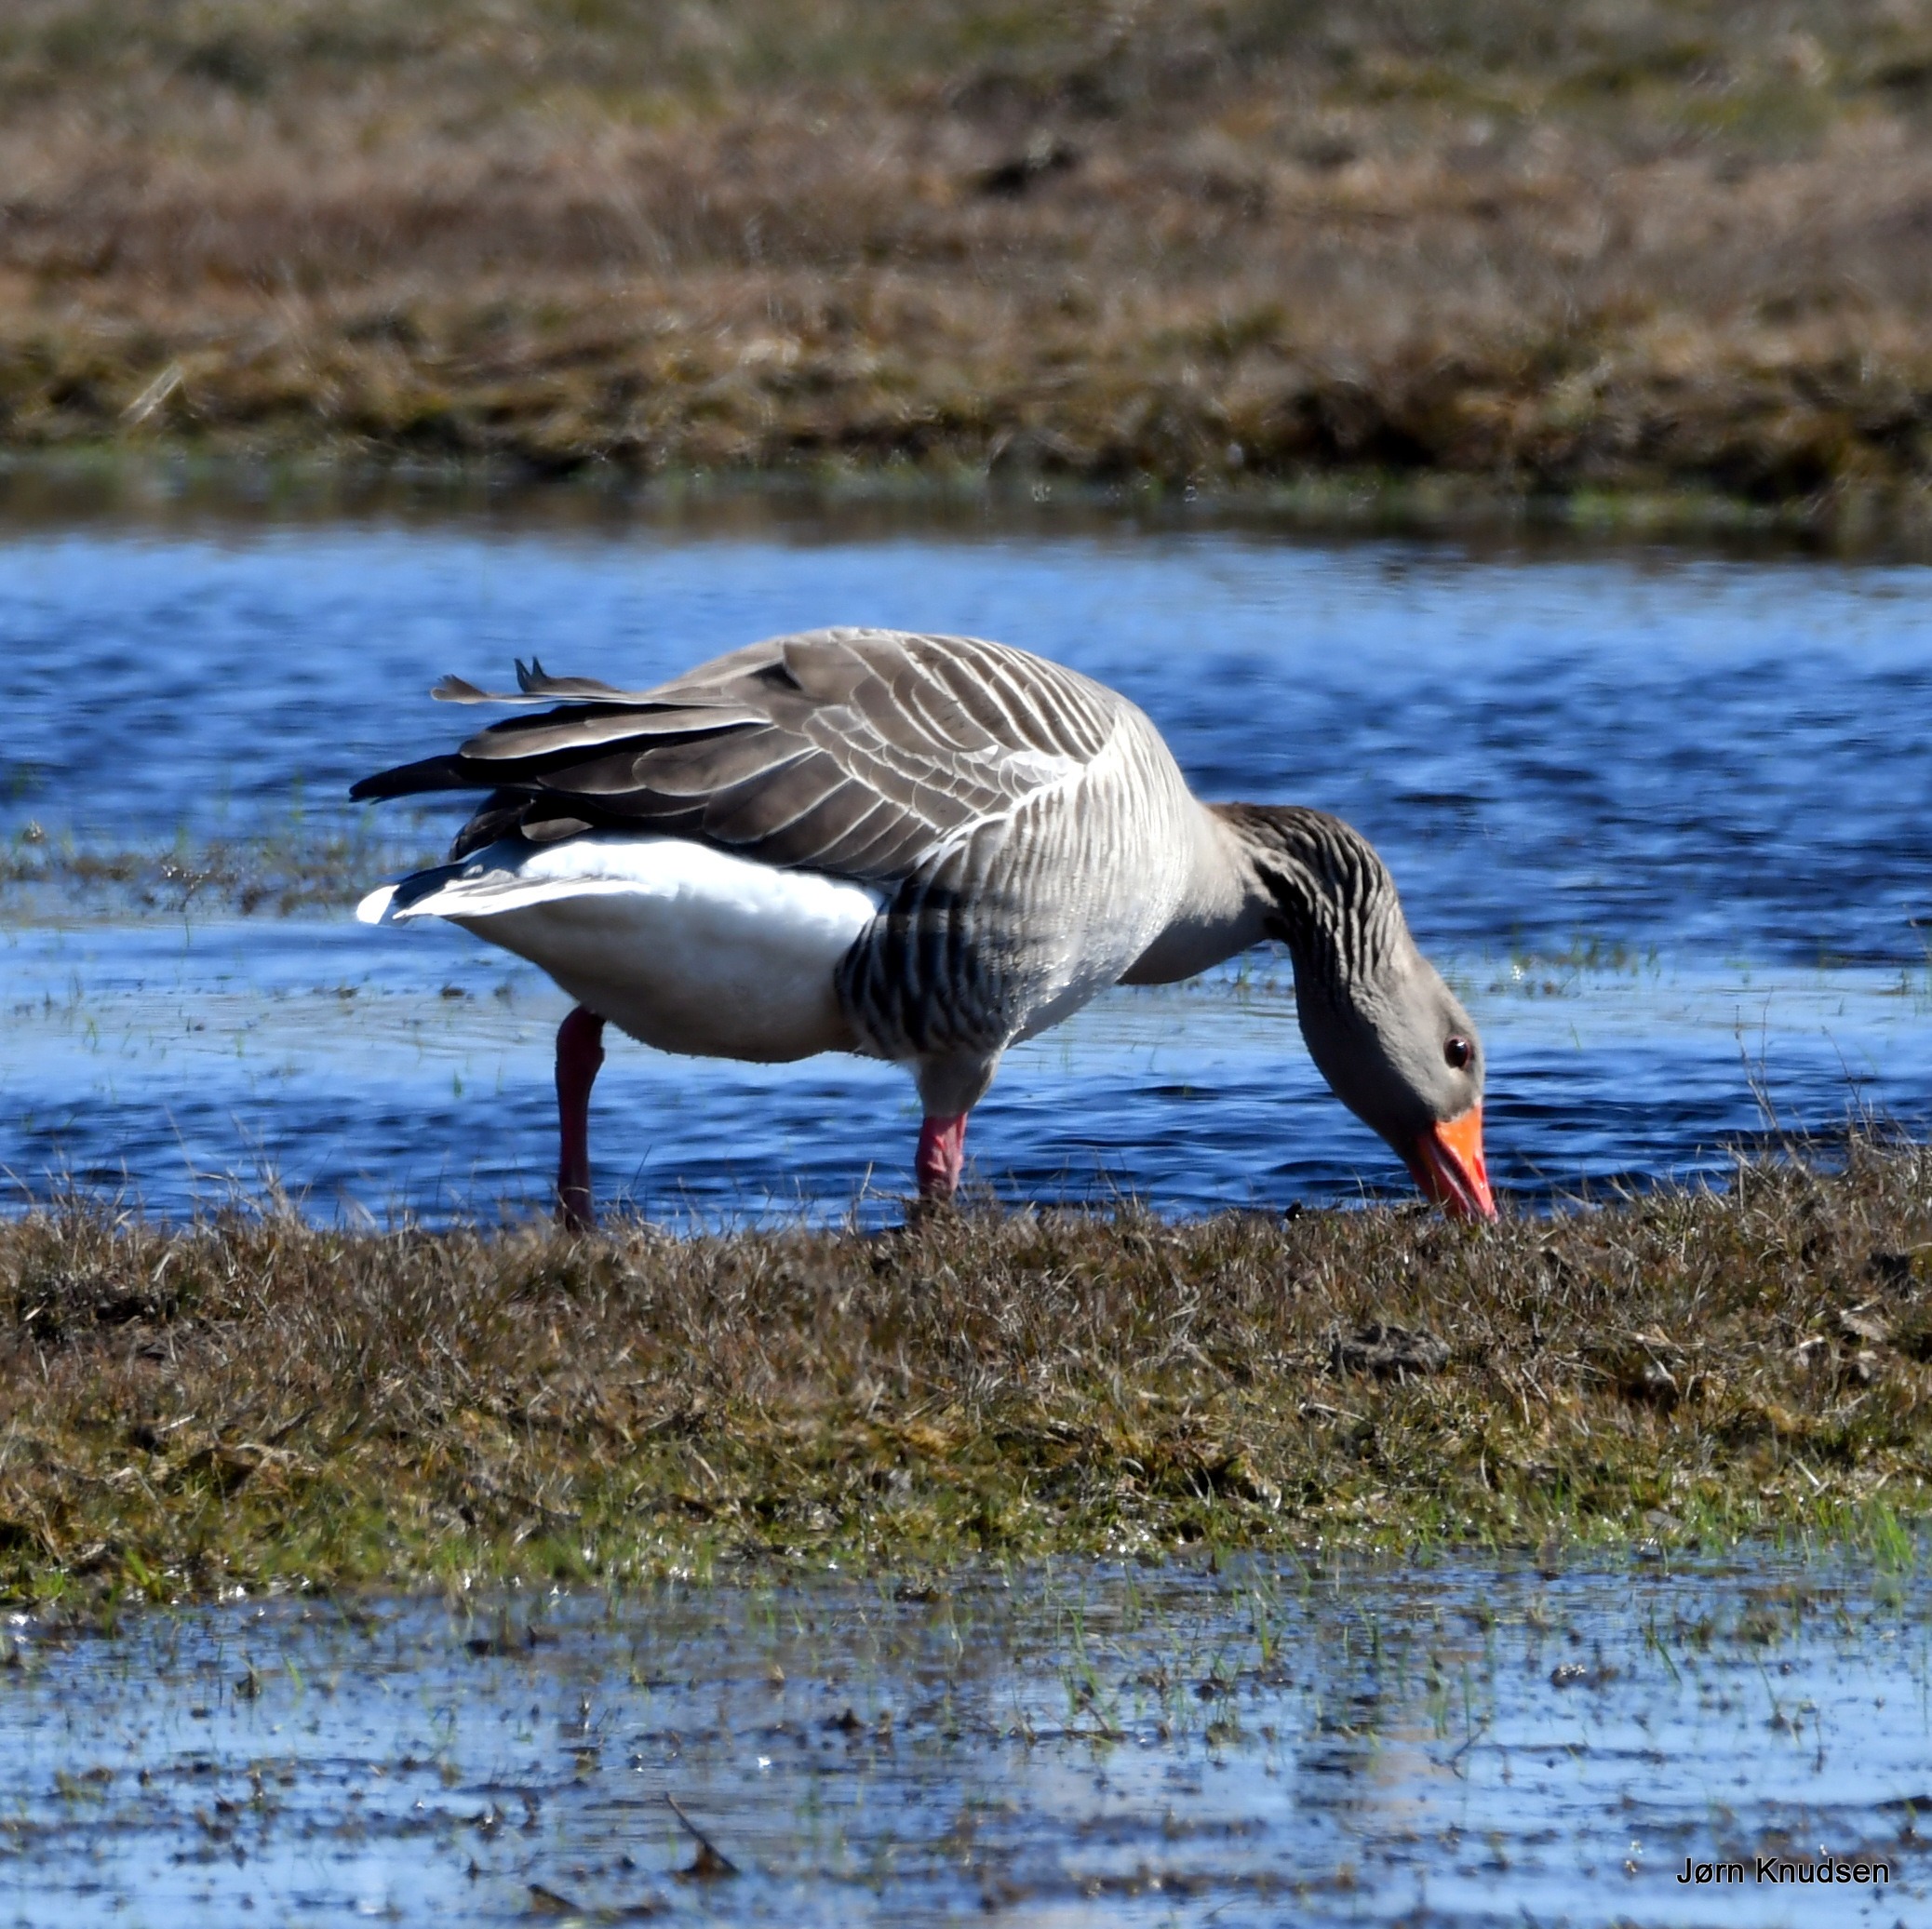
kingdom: Animalia
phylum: Chordata
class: Aves
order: Anseriformes
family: Anatidae
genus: Anser
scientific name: Anser anser
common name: Grågås
